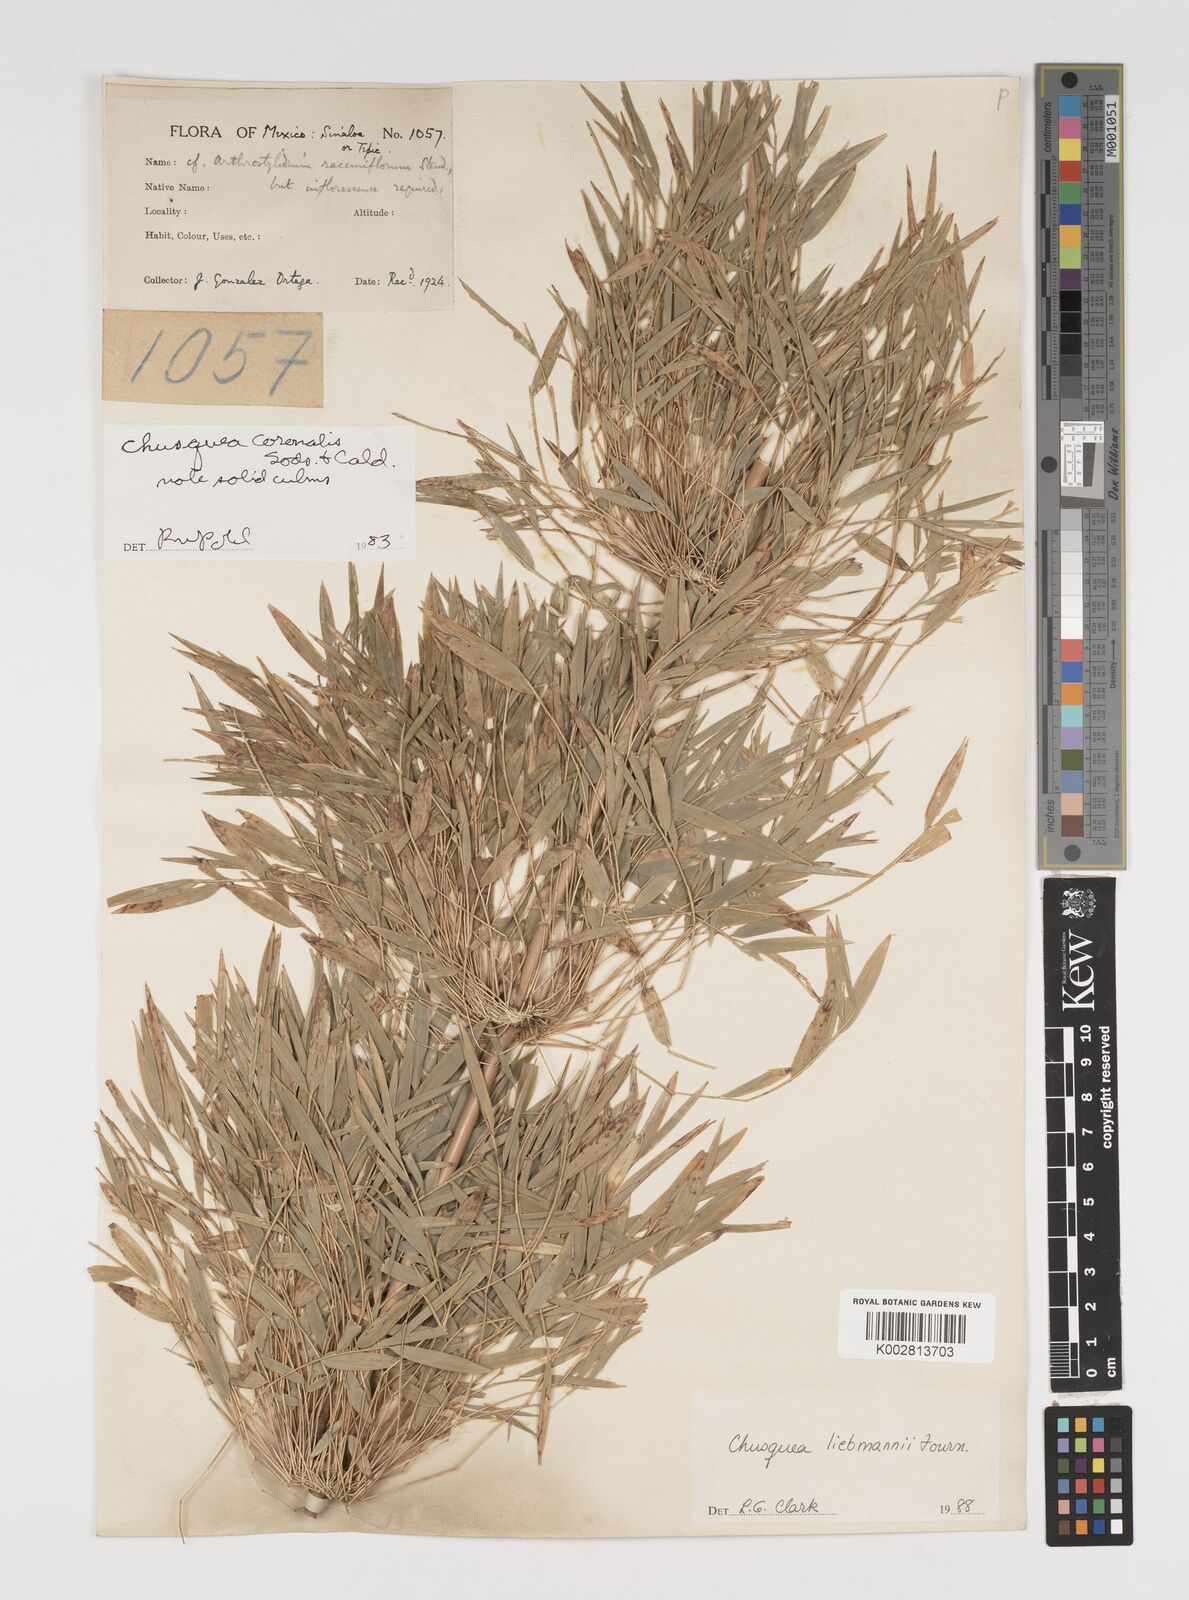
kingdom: Plantae
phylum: Tracheophyta
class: Liliopsida
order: Poales
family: Poaceae
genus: Chusquea
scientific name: Chusquea liebmannii
